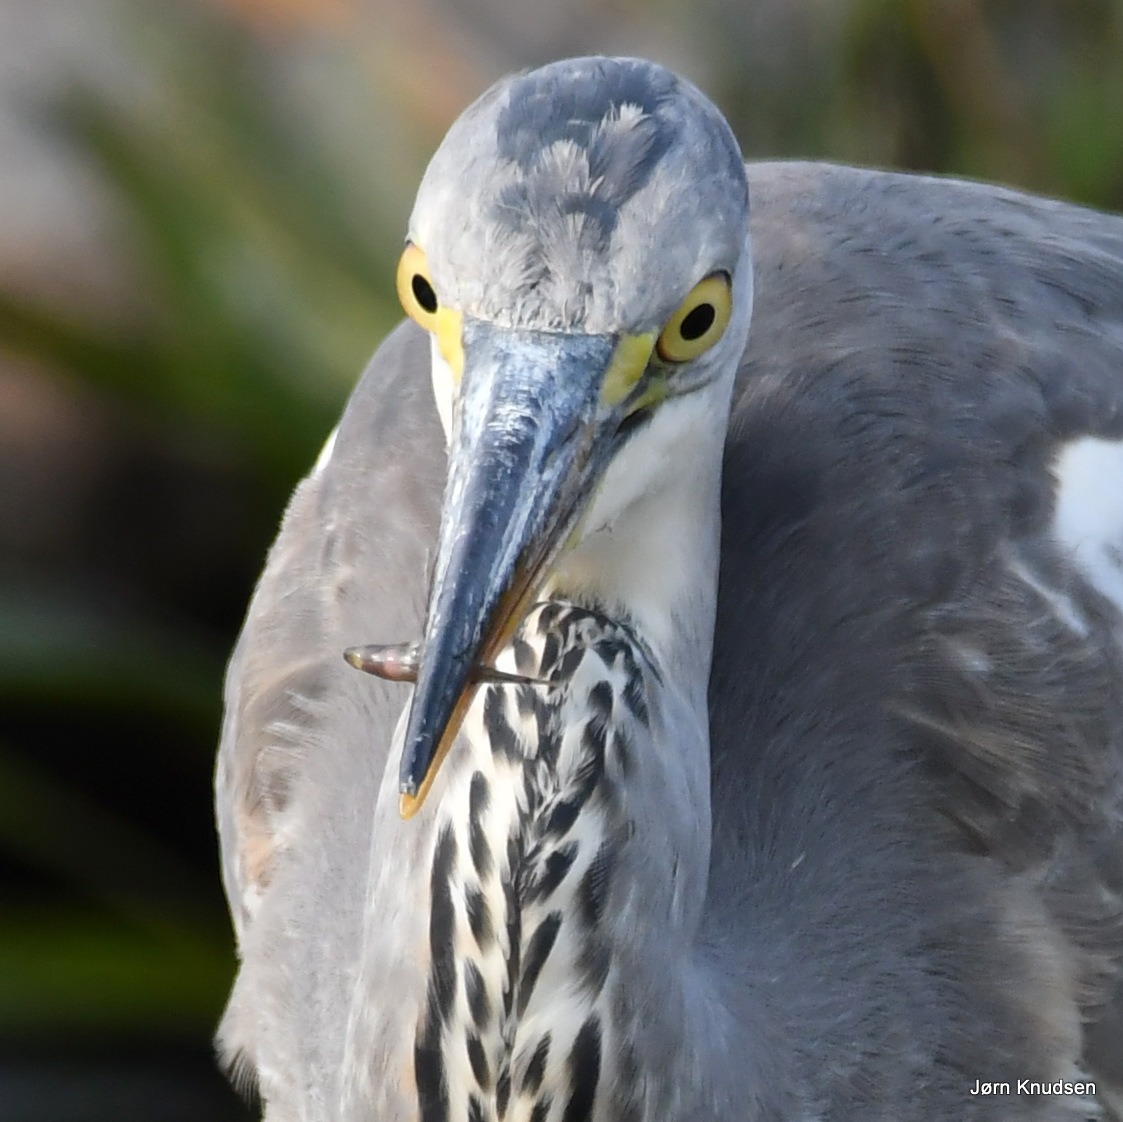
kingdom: Animalia
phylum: Chordata
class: Aves
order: Pelecaniformes
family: Ardeidae
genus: Ardea
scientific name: Ardea cinerea
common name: Fiskehejre
